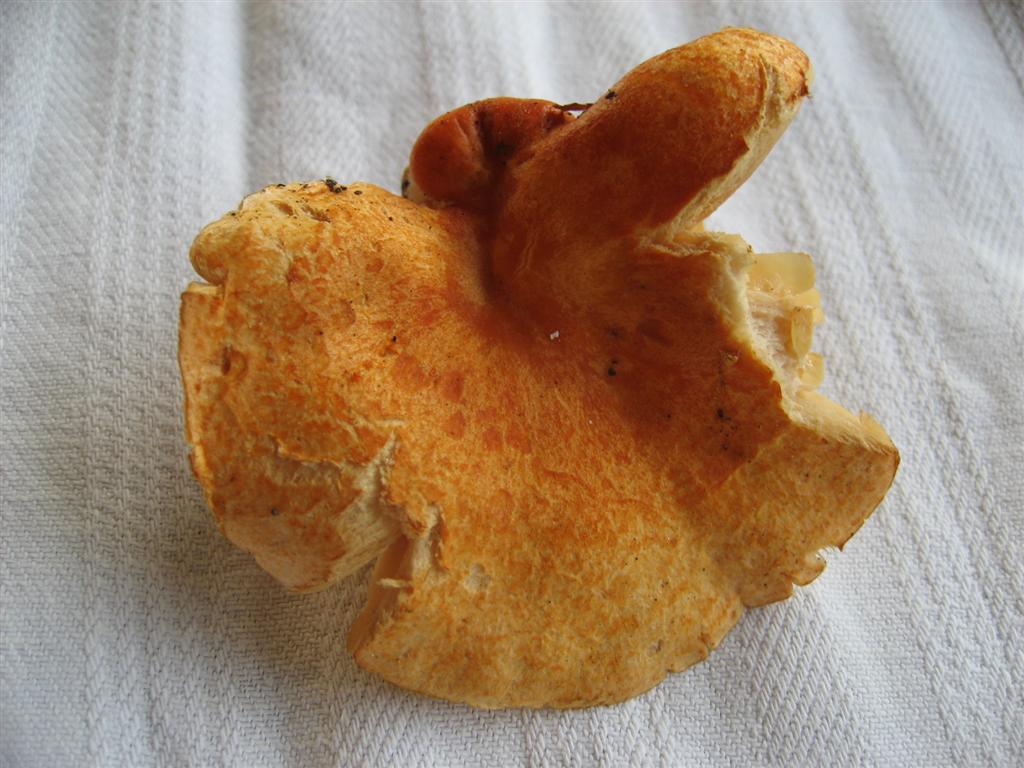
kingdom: Fungi
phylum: Basidiomycota
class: Agaricomycetes
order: Russulales
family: Russulaceae
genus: Lactarius
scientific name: Lactarius porninsis
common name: lærke-mælkehat
